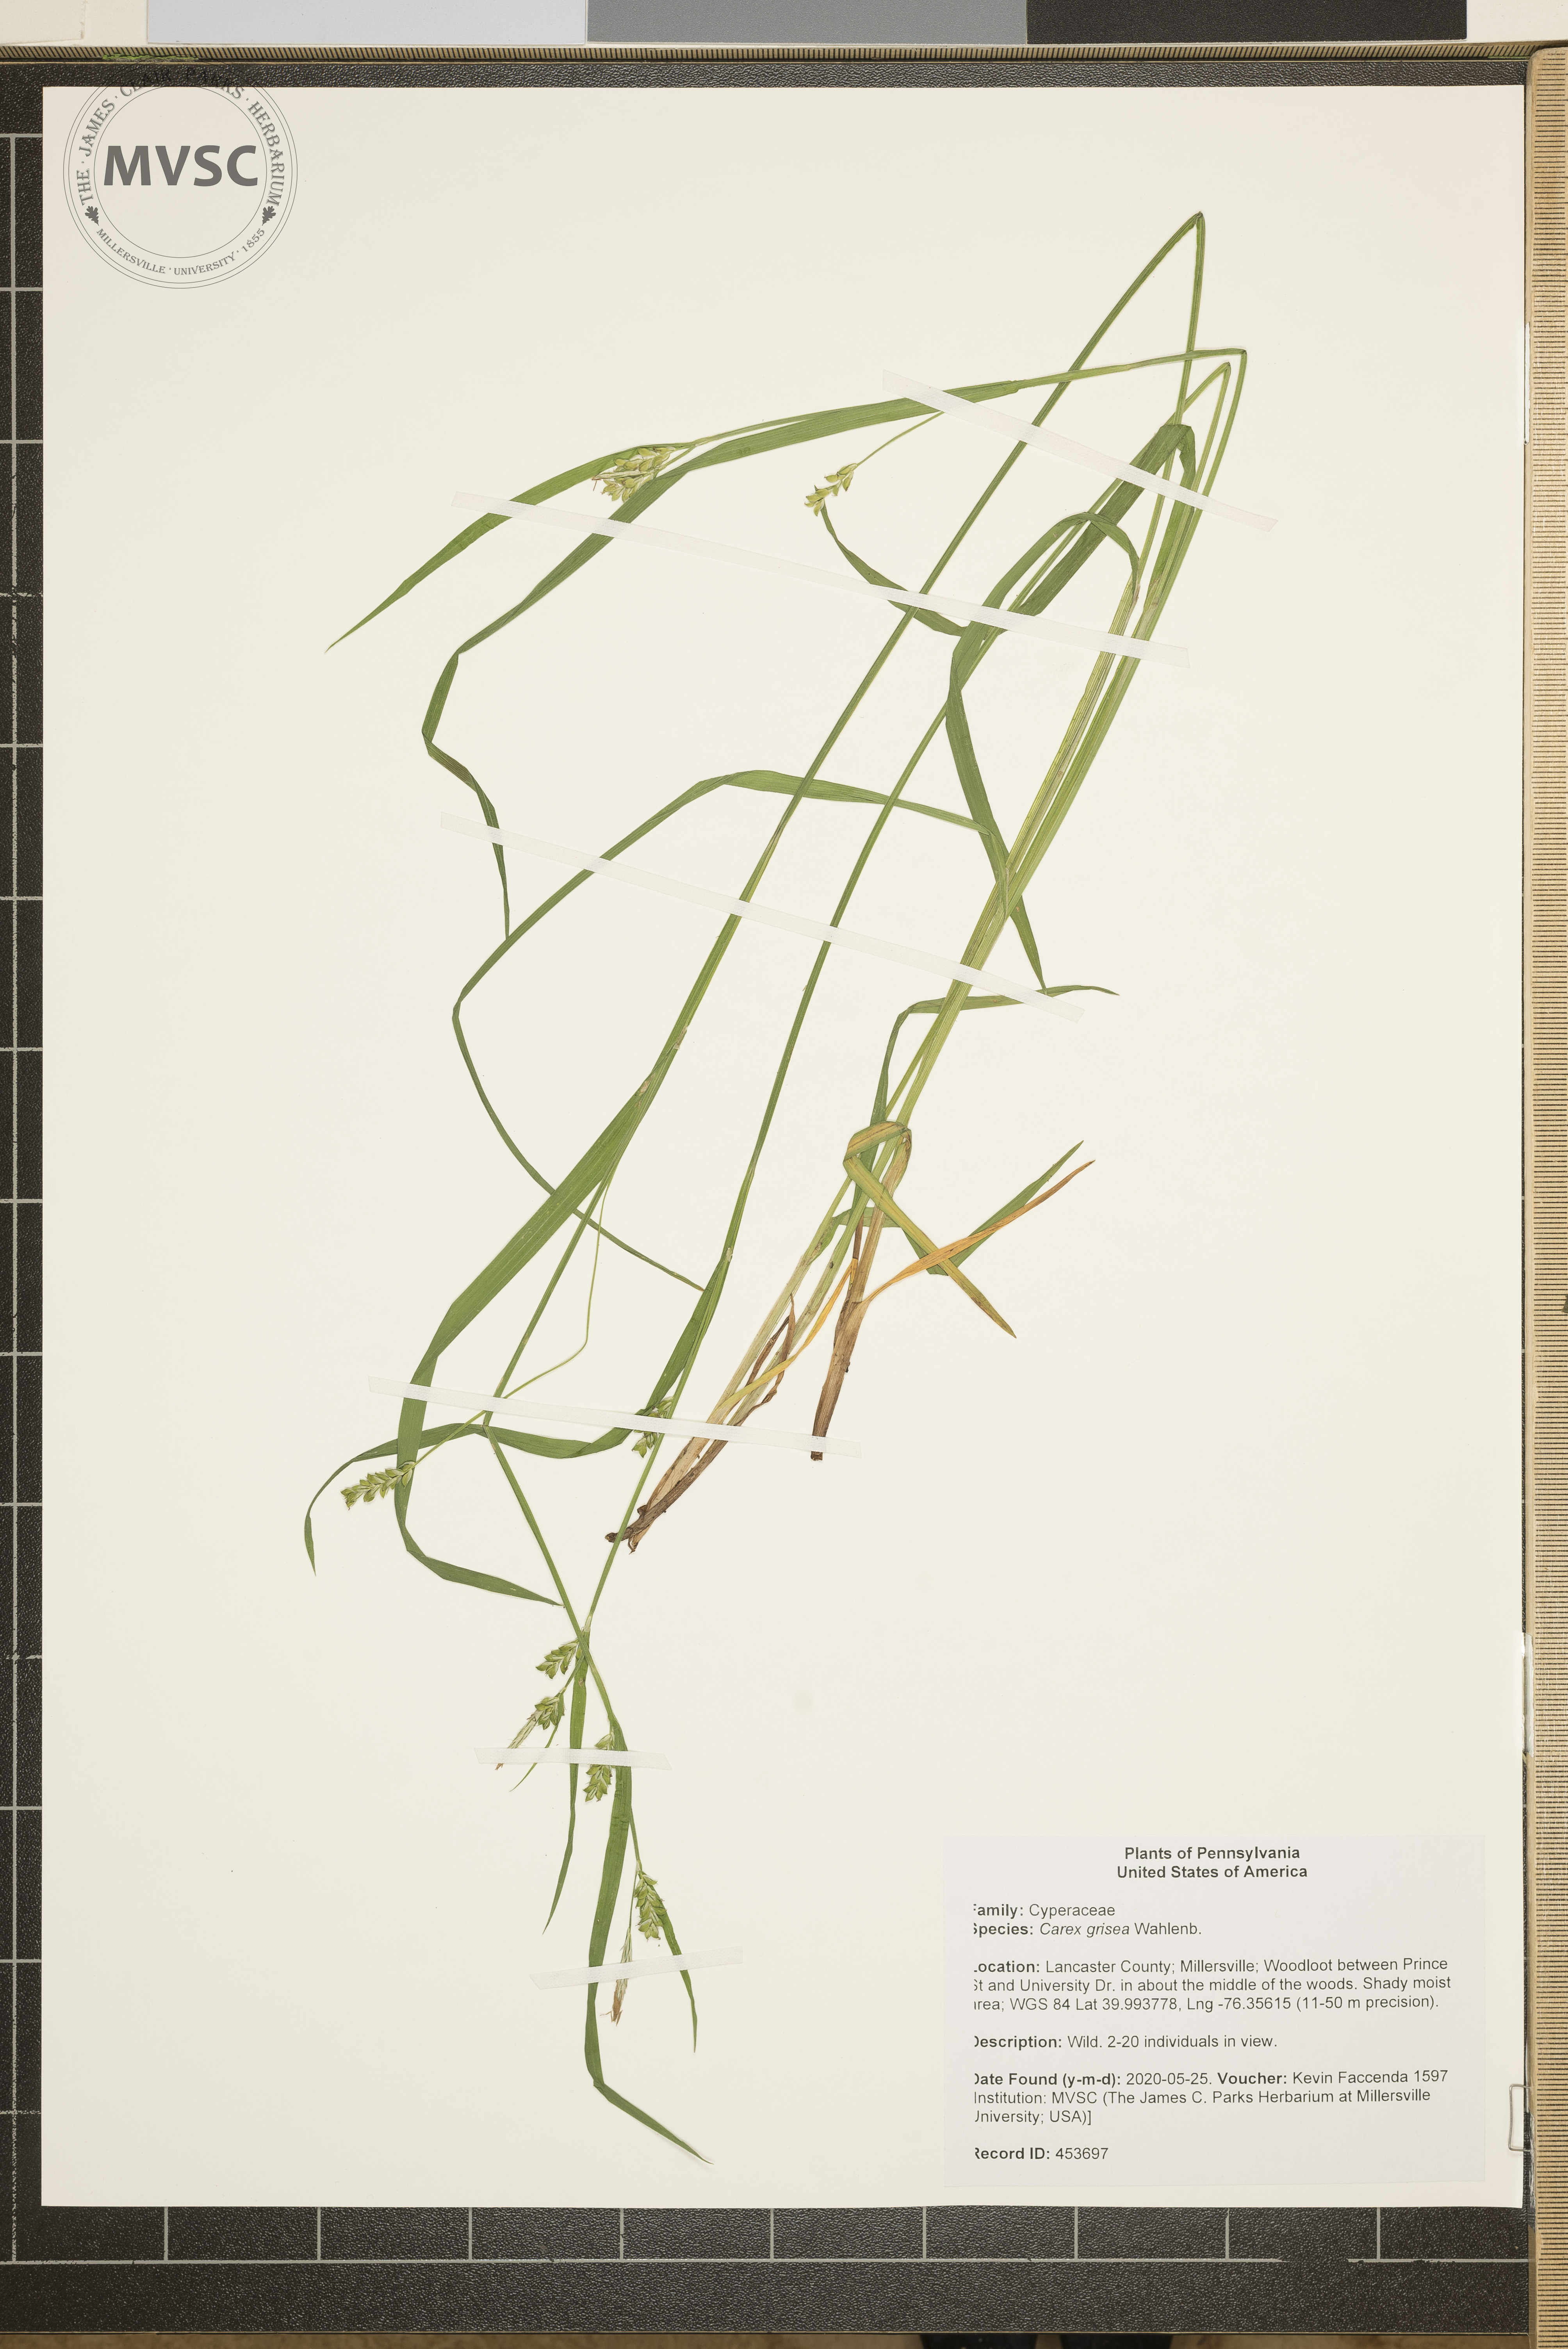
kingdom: Plantae
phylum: Tracheophyta
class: Liliopsida
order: Poales
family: Cyperaceae
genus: Carex
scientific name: Carex grisea
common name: Eastern narrow-leaved sedge
